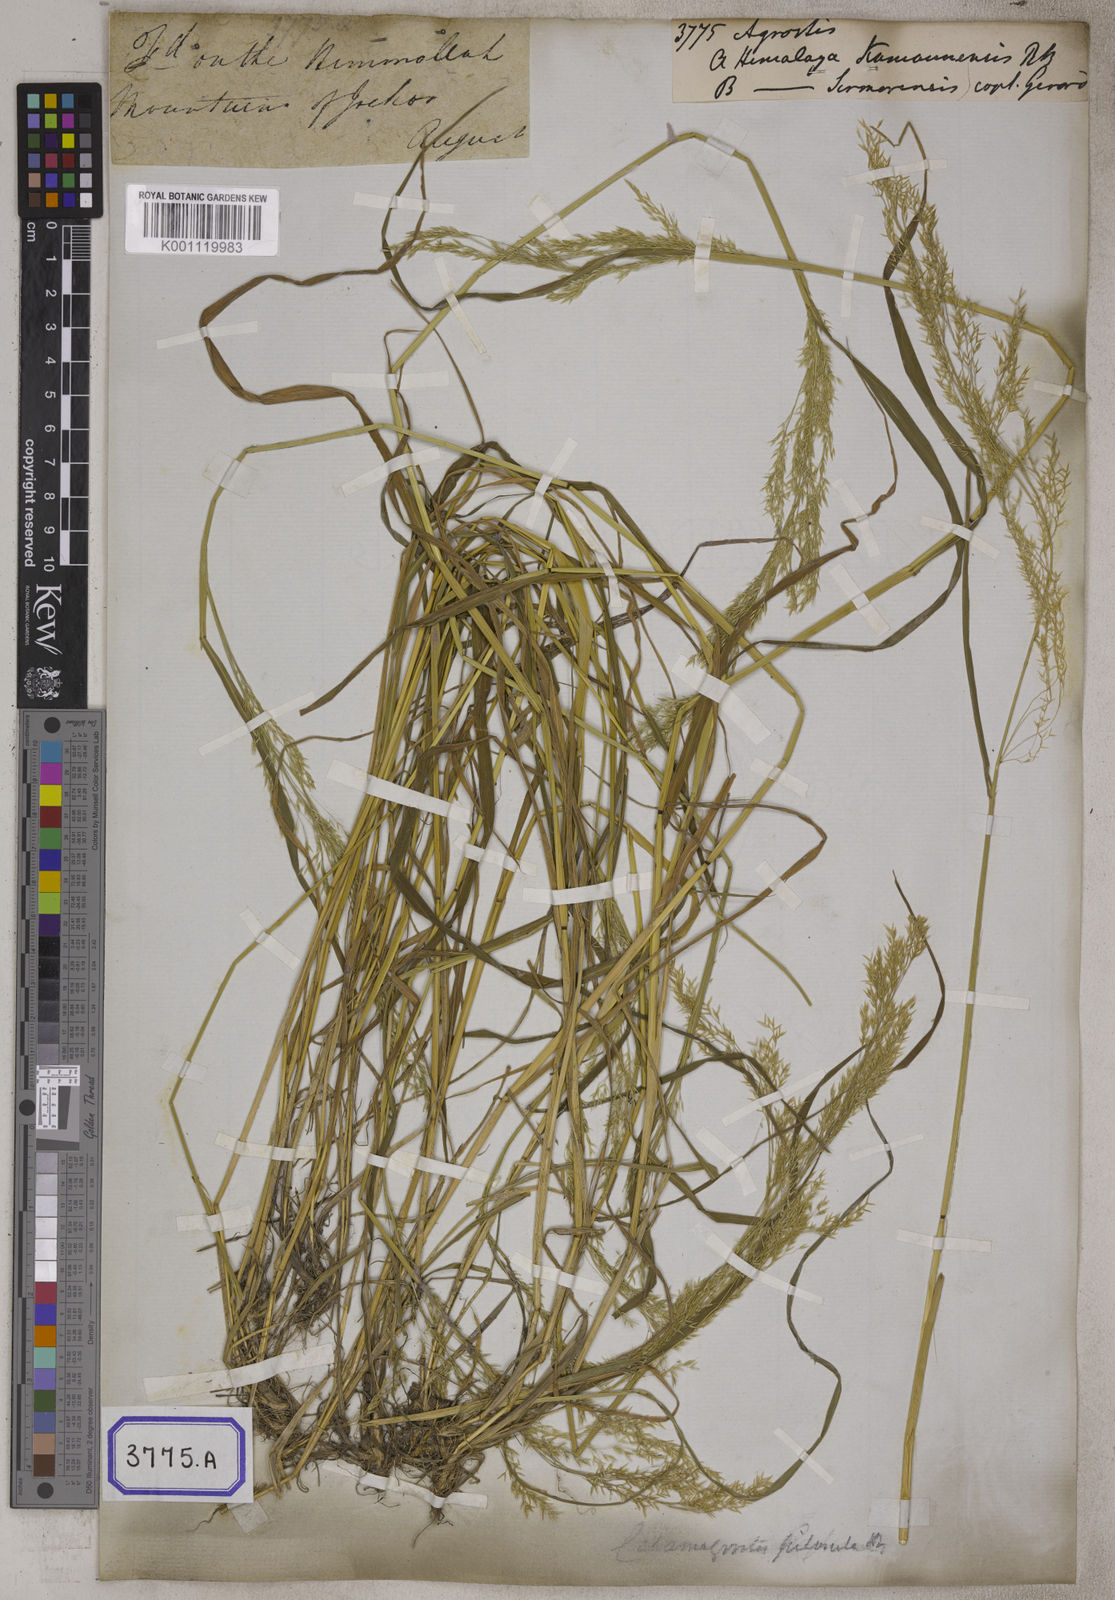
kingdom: Plantae
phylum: Tracheophyta
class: Liliopsida
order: Poales
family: Poaceae
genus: Agrostis
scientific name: Agrostis
